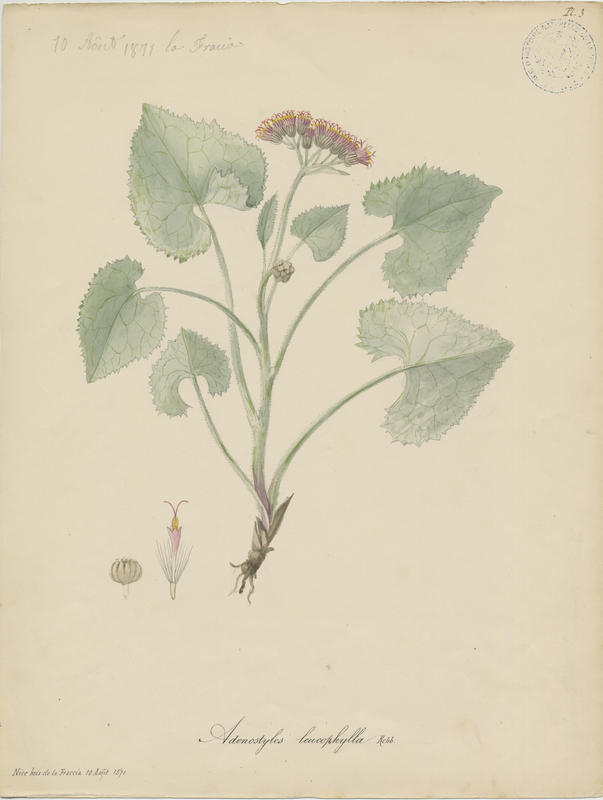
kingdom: Plantae
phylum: Tracheophyta
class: Magnoliopsida
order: Asterales
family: Asteraceae
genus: Adenostyles
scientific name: Adenostyles leucophylla
